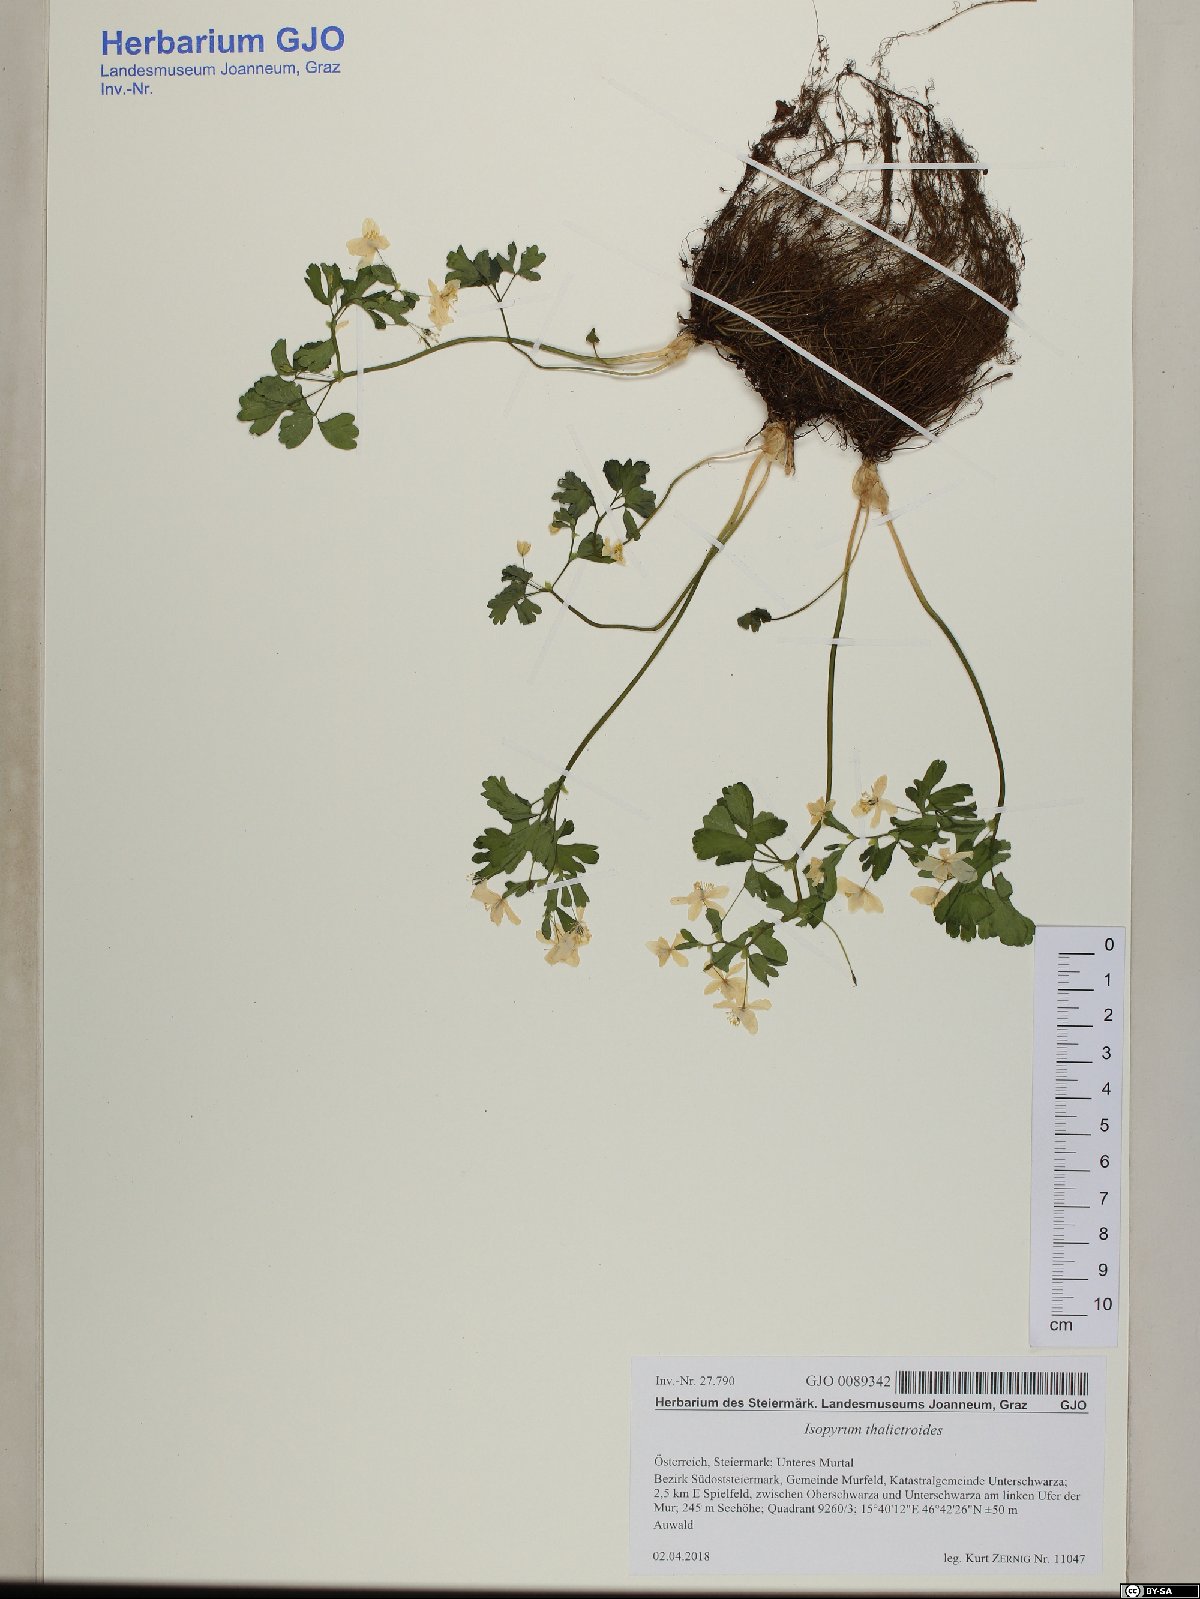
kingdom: Plantae
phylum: Tracheophyta
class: Magnoliopsida
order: Ranunculales
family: Ranunculaceae
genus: Isopyrum
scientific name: Isopyrum thalictroides
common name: Isopyrum
